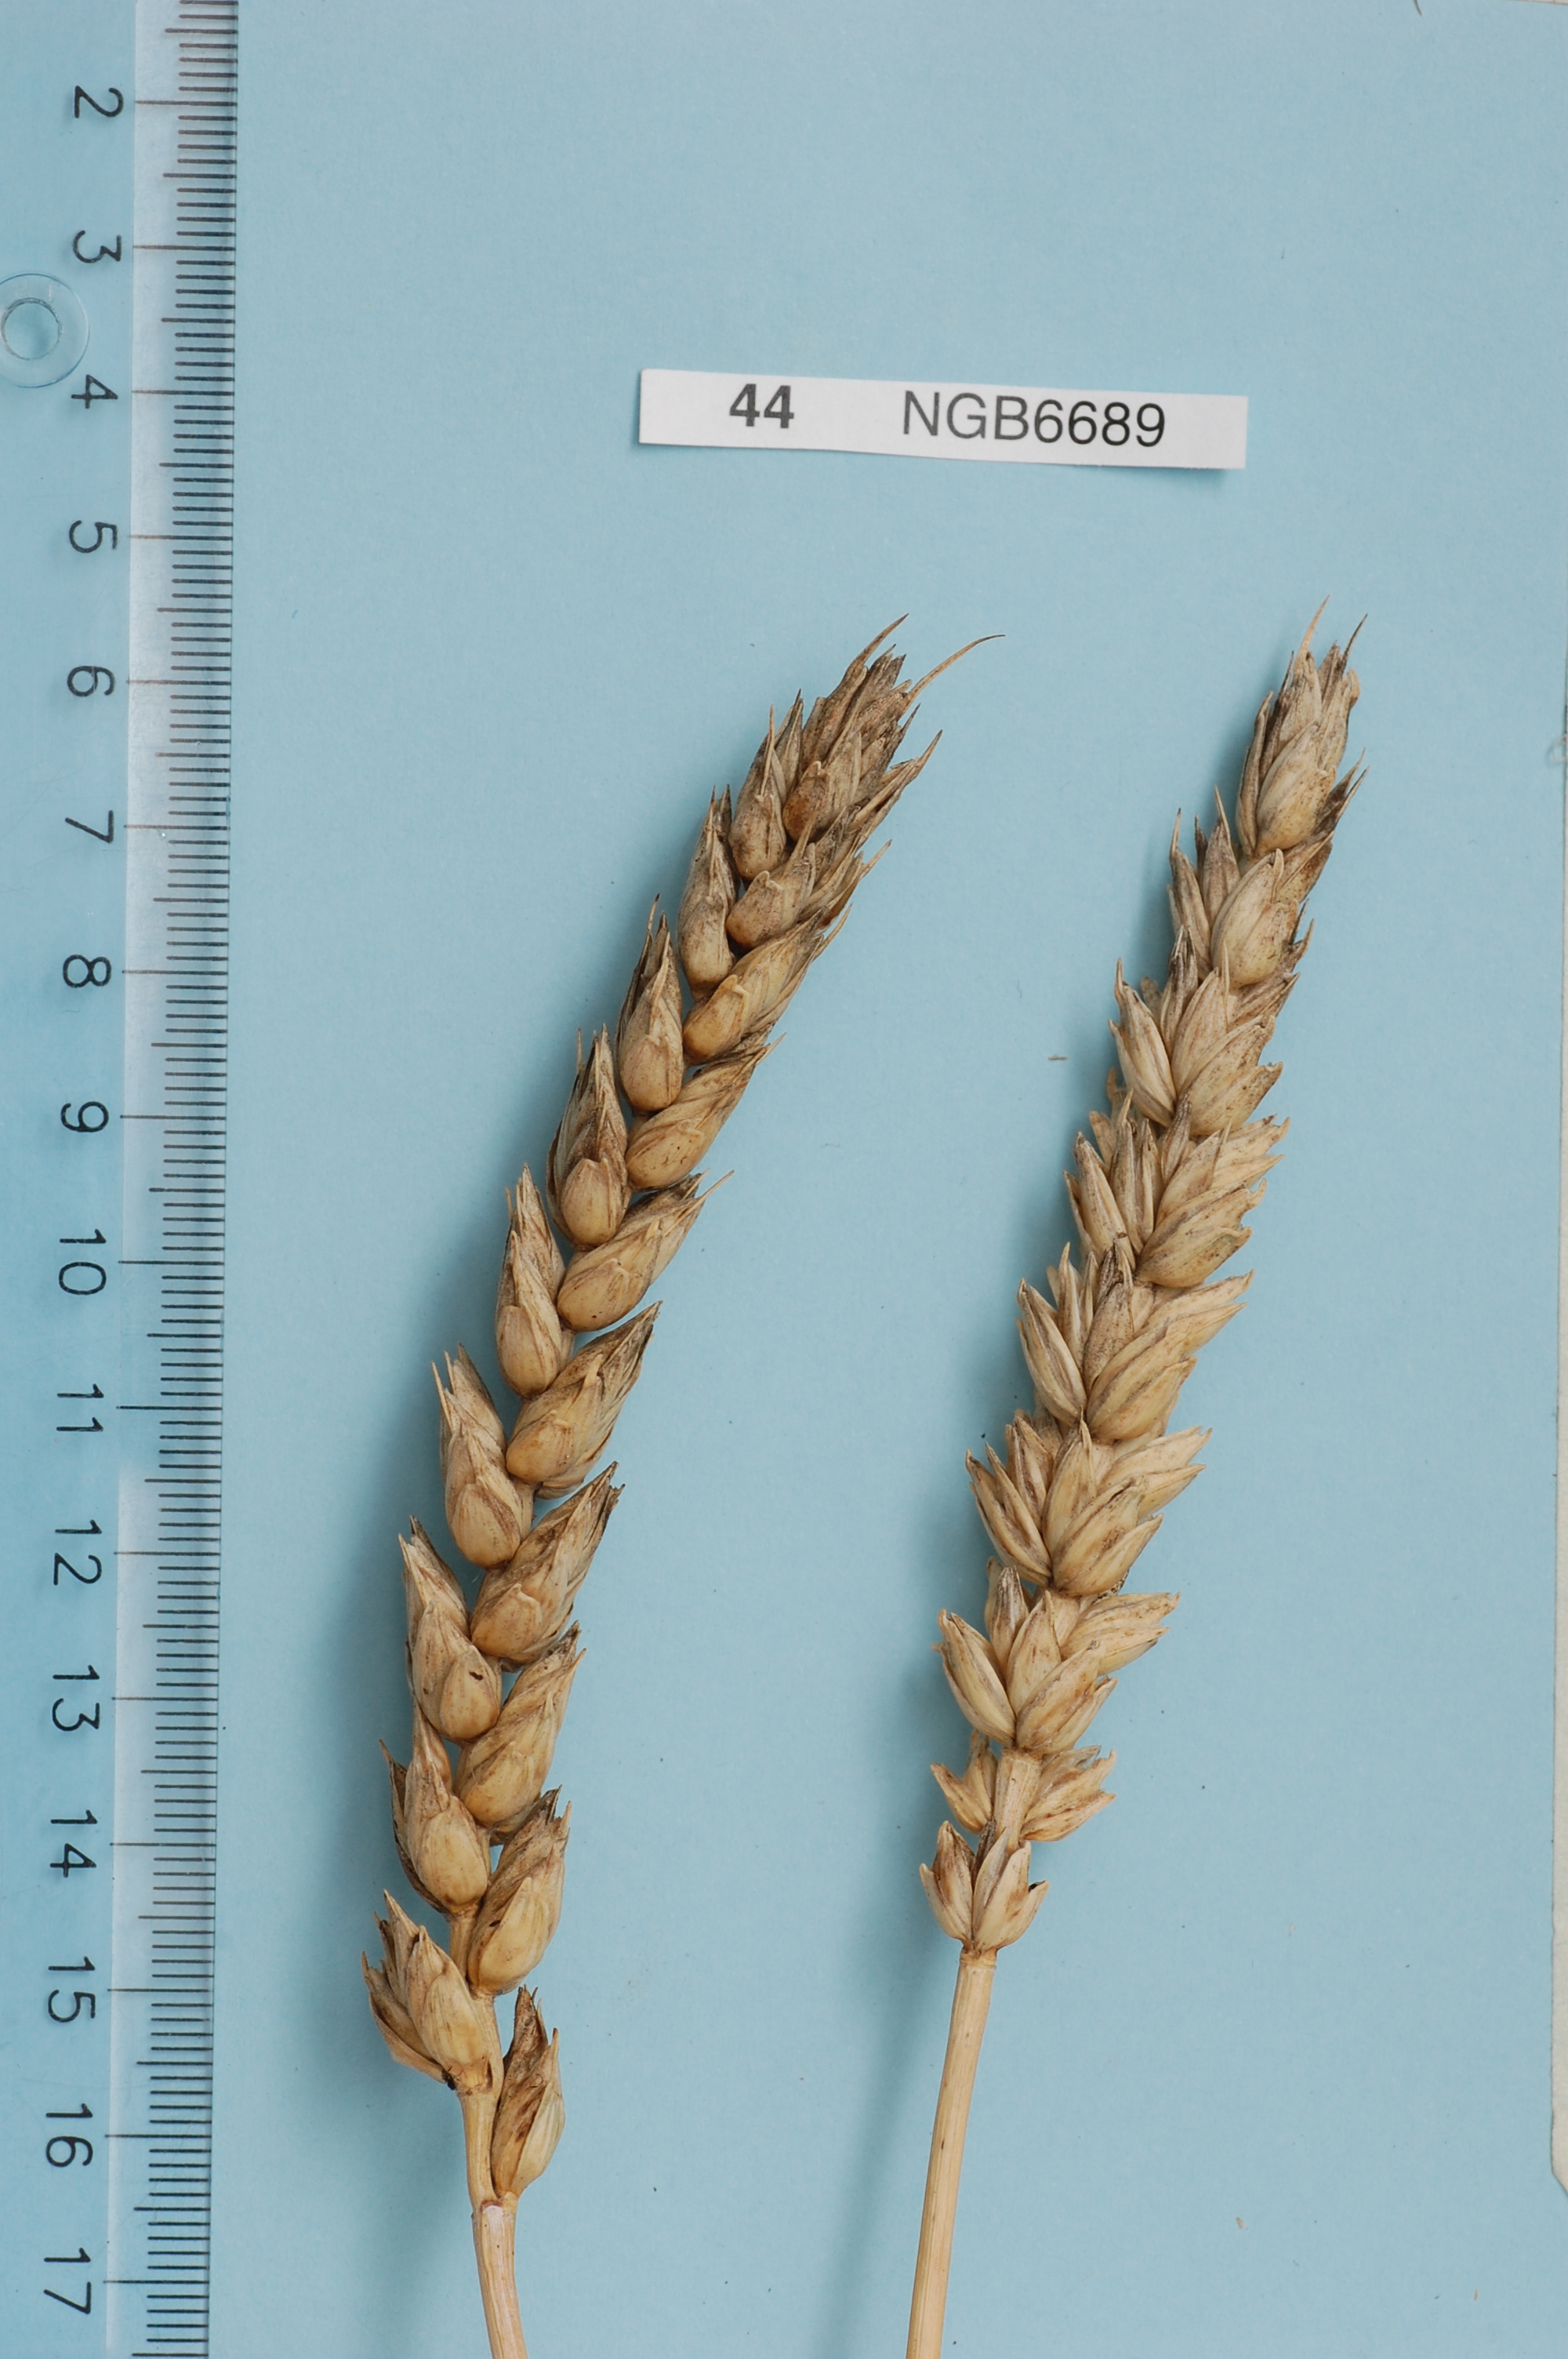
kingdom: Plantae
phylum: Tracheophyta
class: Liliopsida
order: Poales
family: Poaceae
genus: Triticum
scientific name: Triticum aestivum
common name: Common wheat
